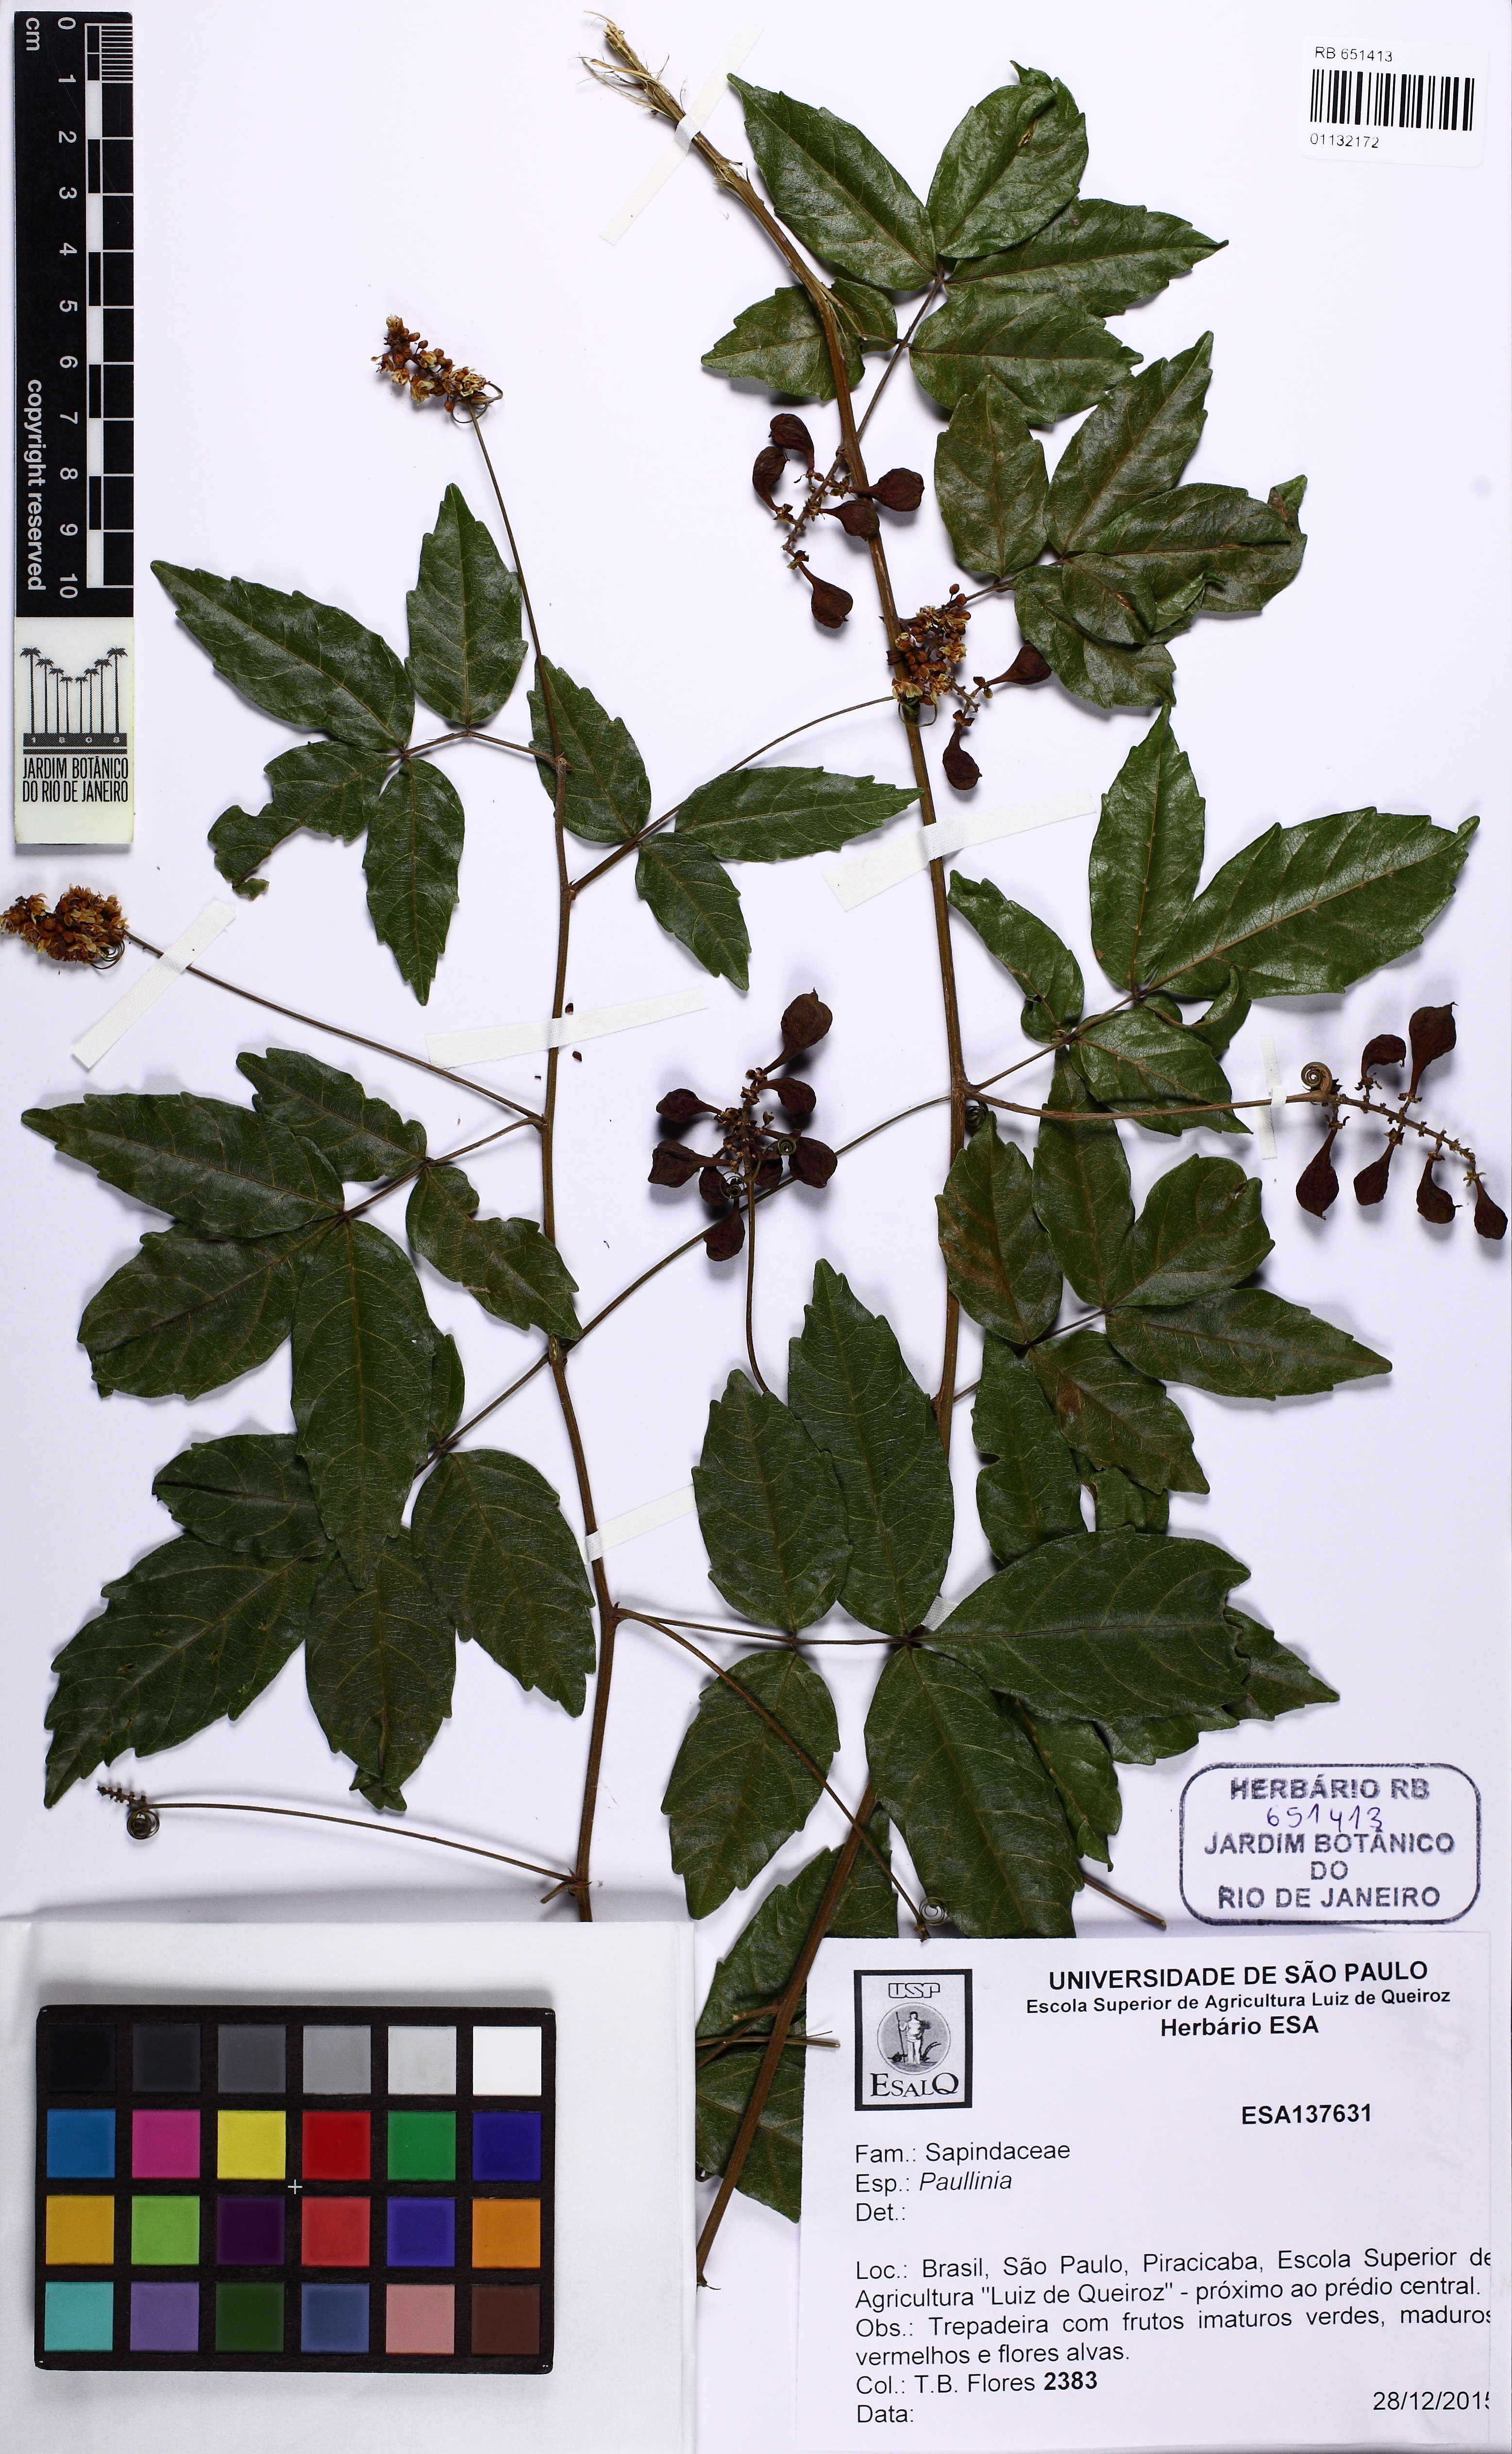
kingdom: Plantae
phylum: Tracheophyta
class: Magnoliopsida
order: Sapindales
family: Sapindaceae
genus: Paullinia
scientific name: Paullinia elegans
